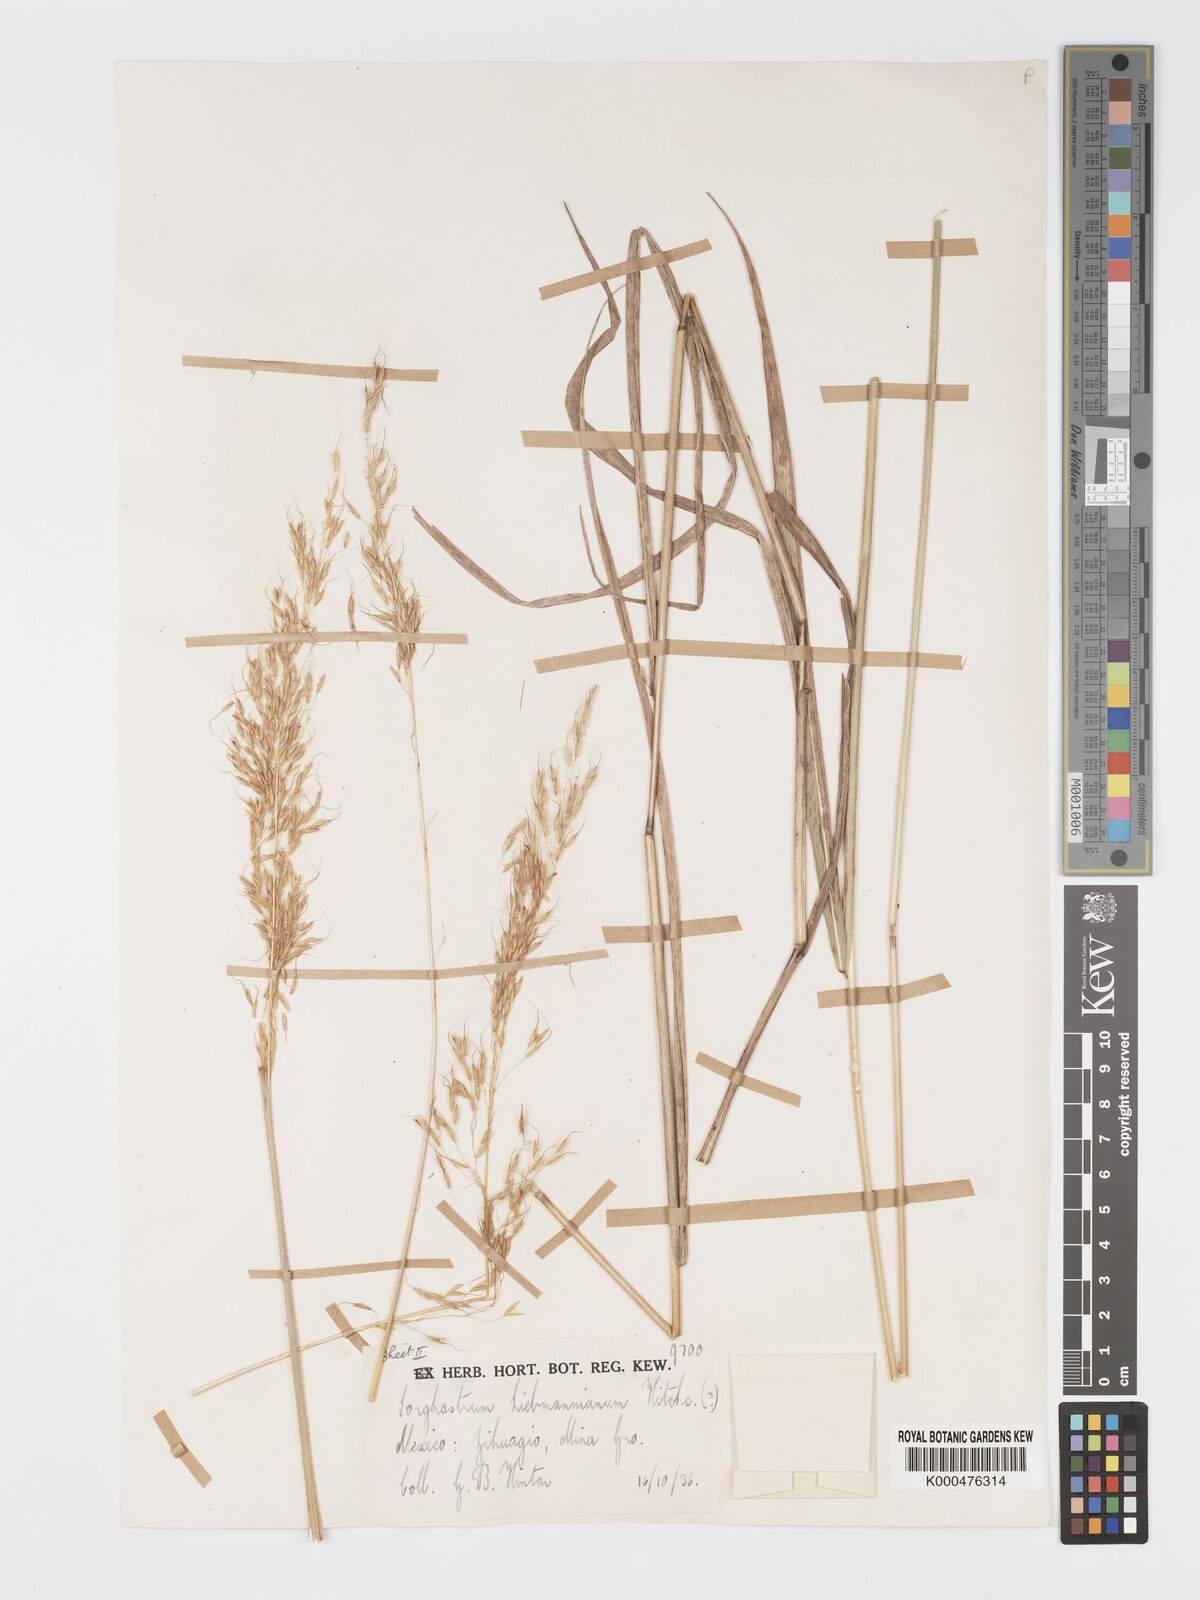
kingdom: Plantae
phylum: Tracheophyta
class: Liliopsida
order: Poales
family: Poaceae
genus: Sorghastrum
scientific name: Sorghastrum incompletum
